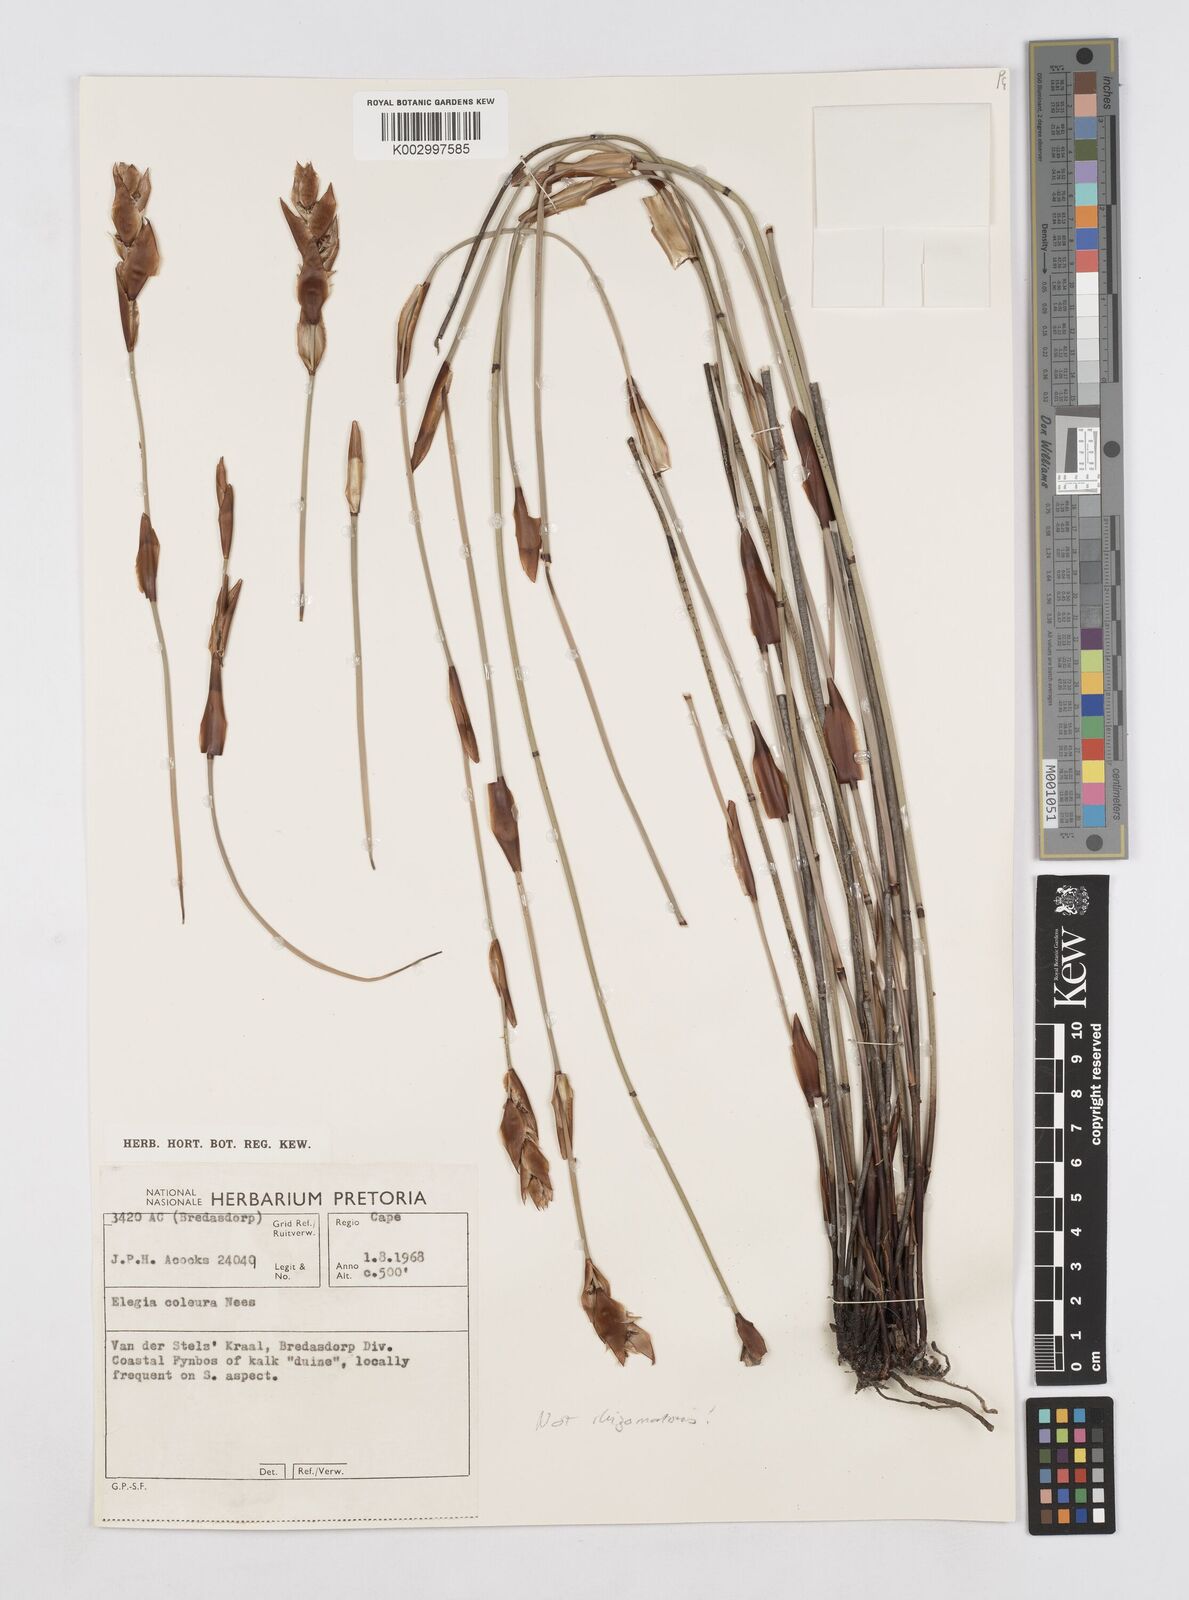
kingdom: Plantae
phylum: Tracheophyta
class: Liliopsida
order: Poales
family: Restionaceae
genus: Elegia
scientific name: Elegia coleura
